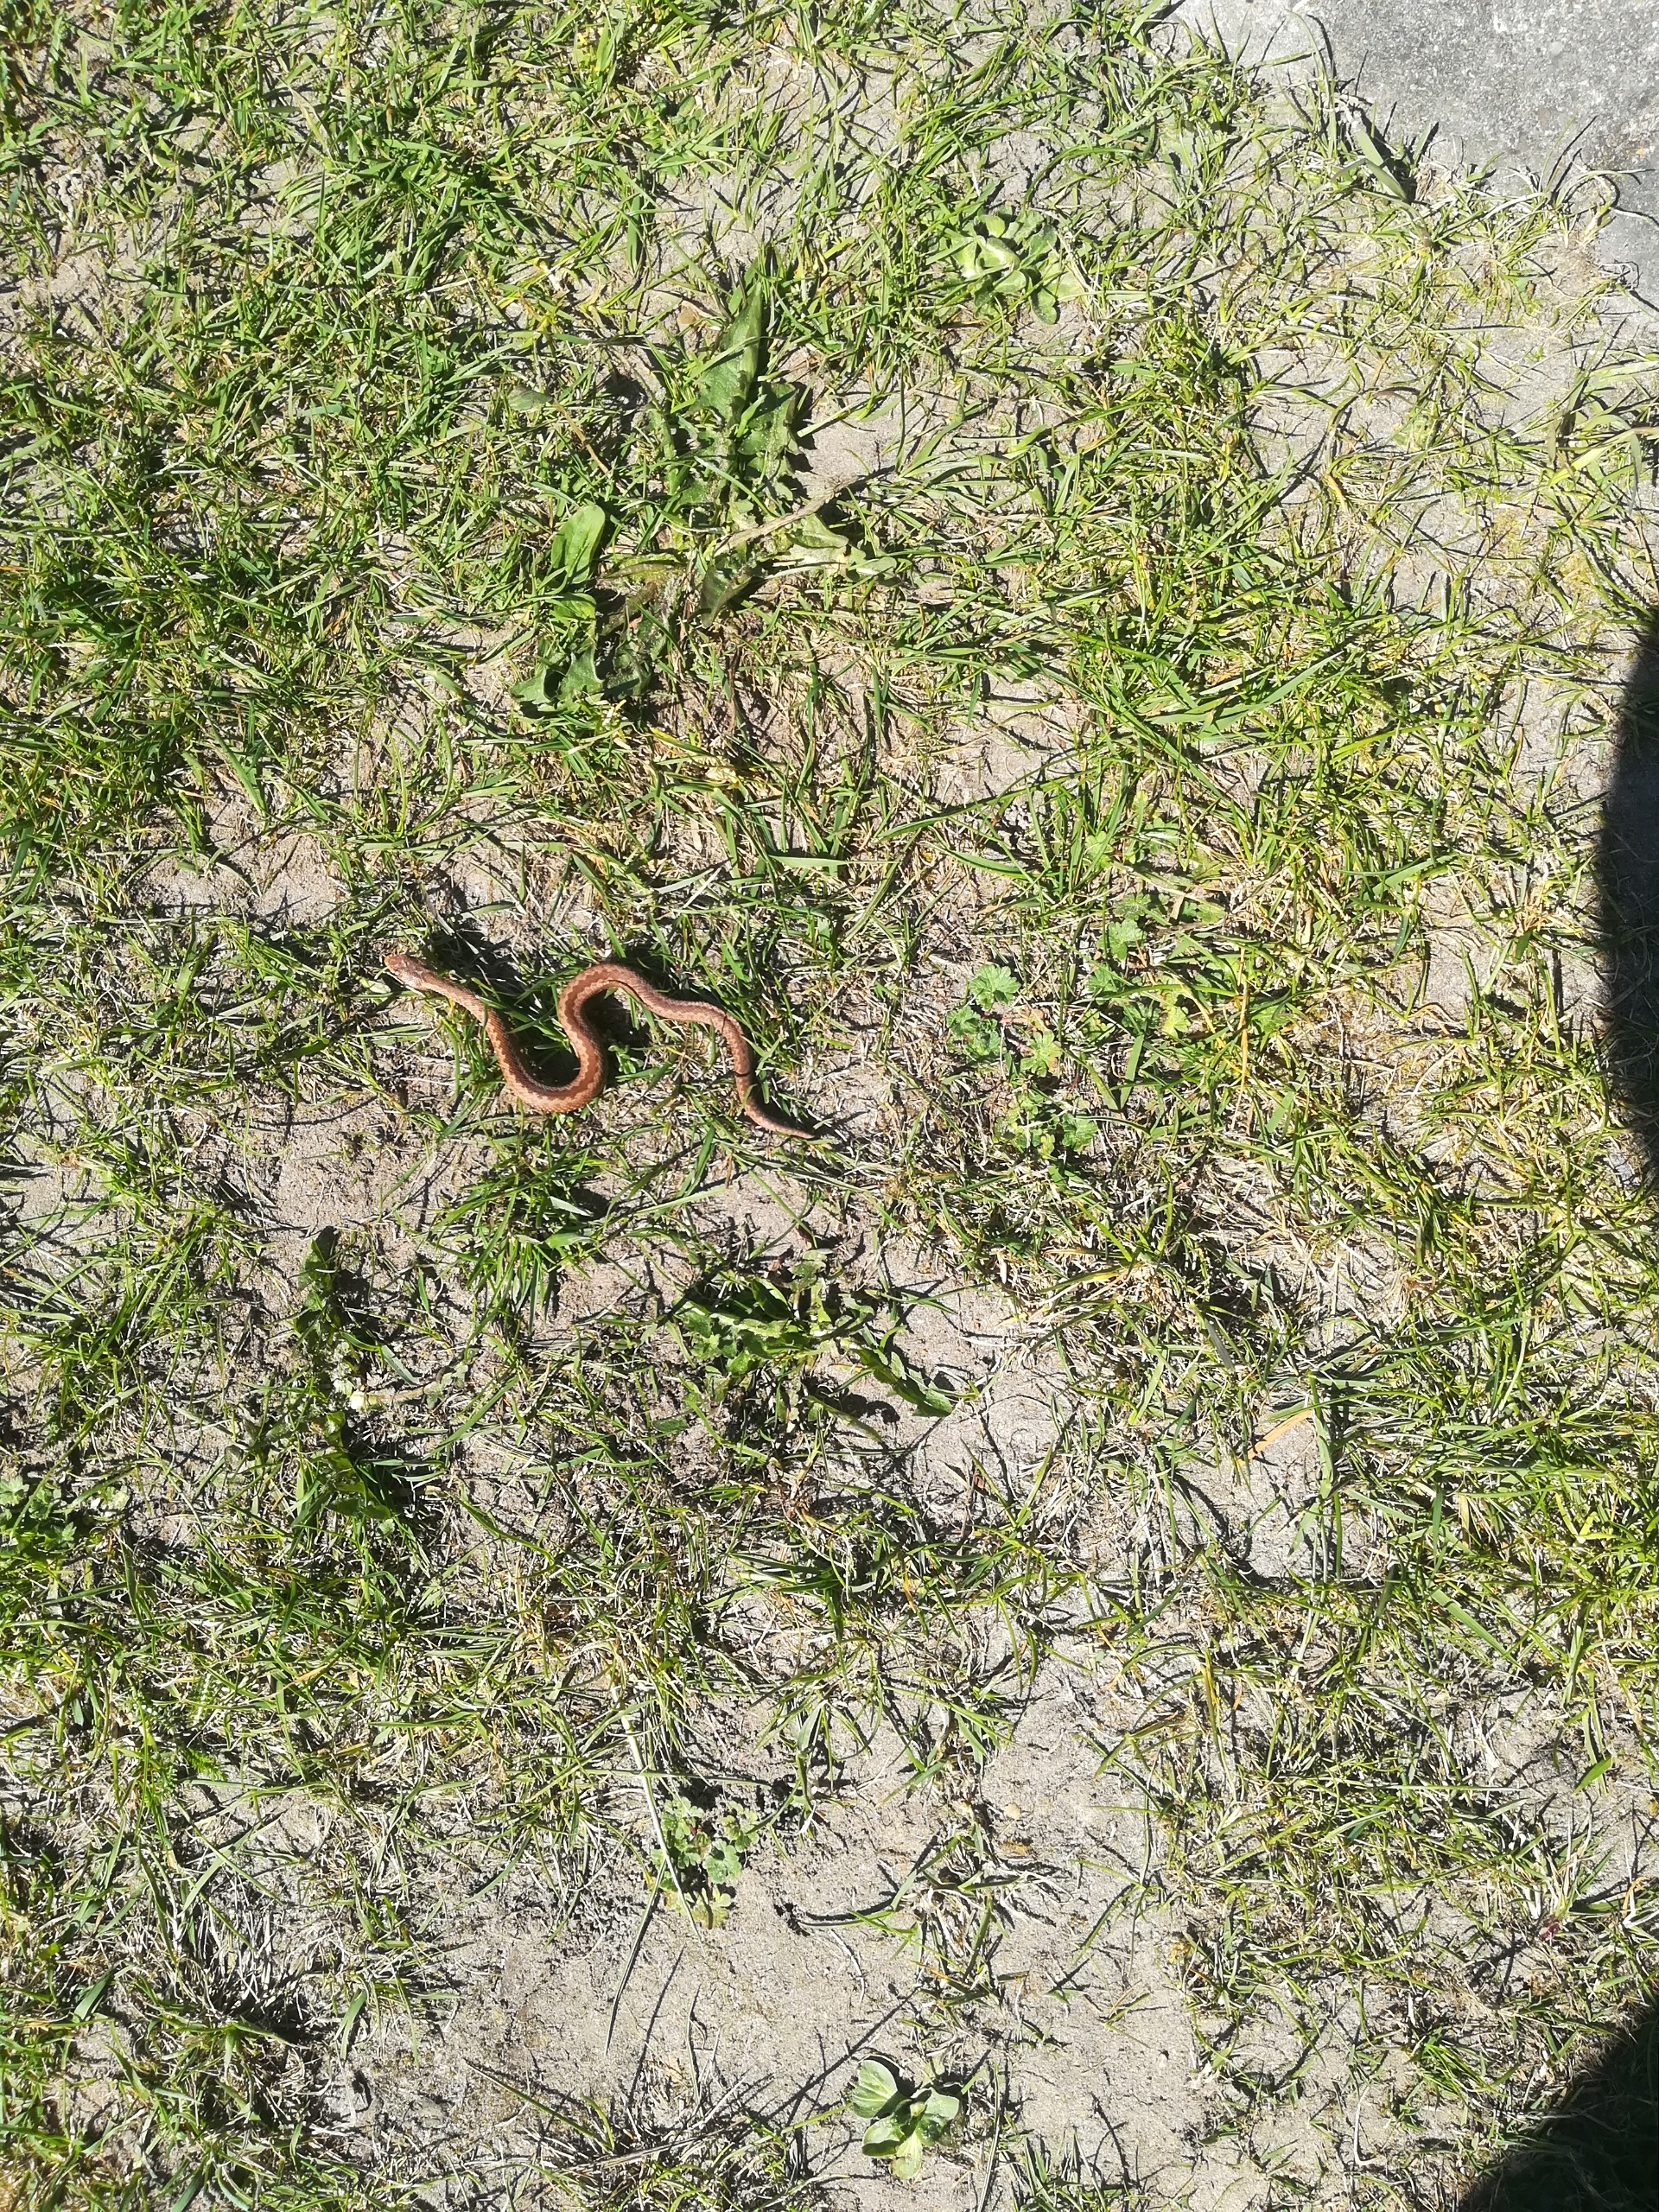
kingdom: Animalia
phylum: Chordata
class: Squamata
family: Viperidae
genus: Vipera
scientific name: Vipera berus
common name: Hugorm
